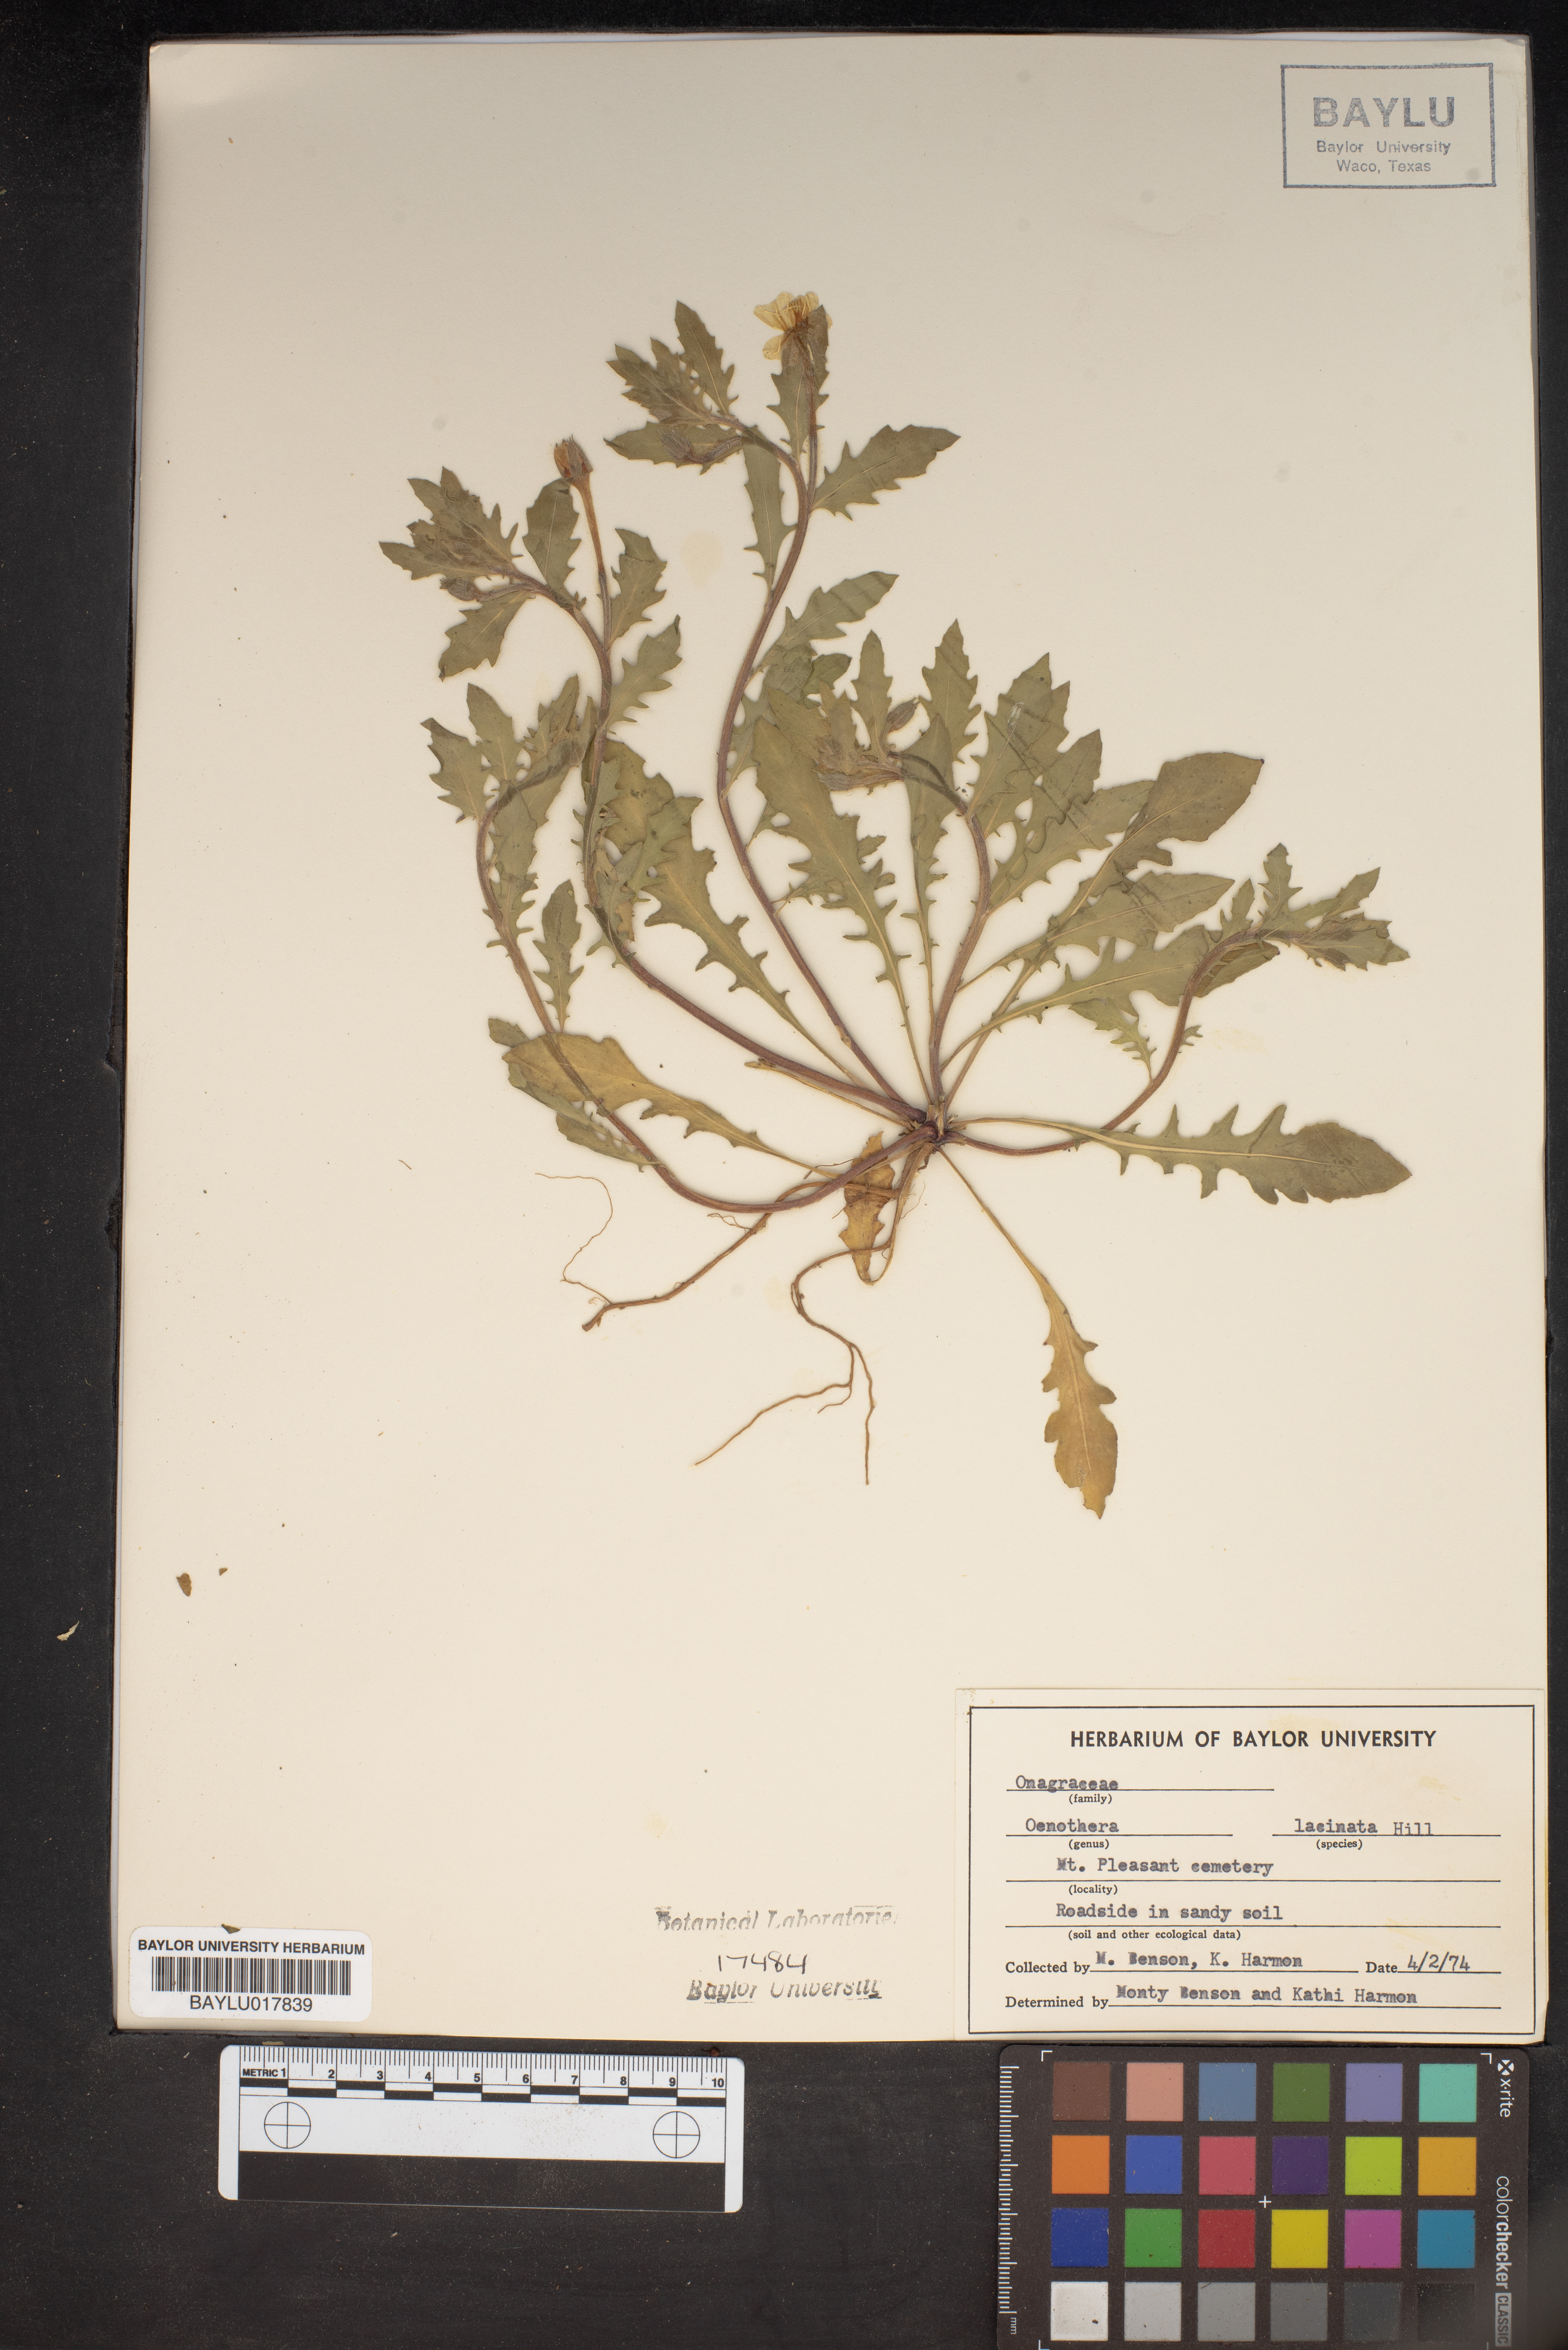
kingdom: Plantae
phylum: Tracheophyta
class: Magnoliopsida
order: Myrtales
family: Onagraceae
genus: Oenothera
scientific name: Oenothera laciniata
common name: Cut-leaved evening-primrose
